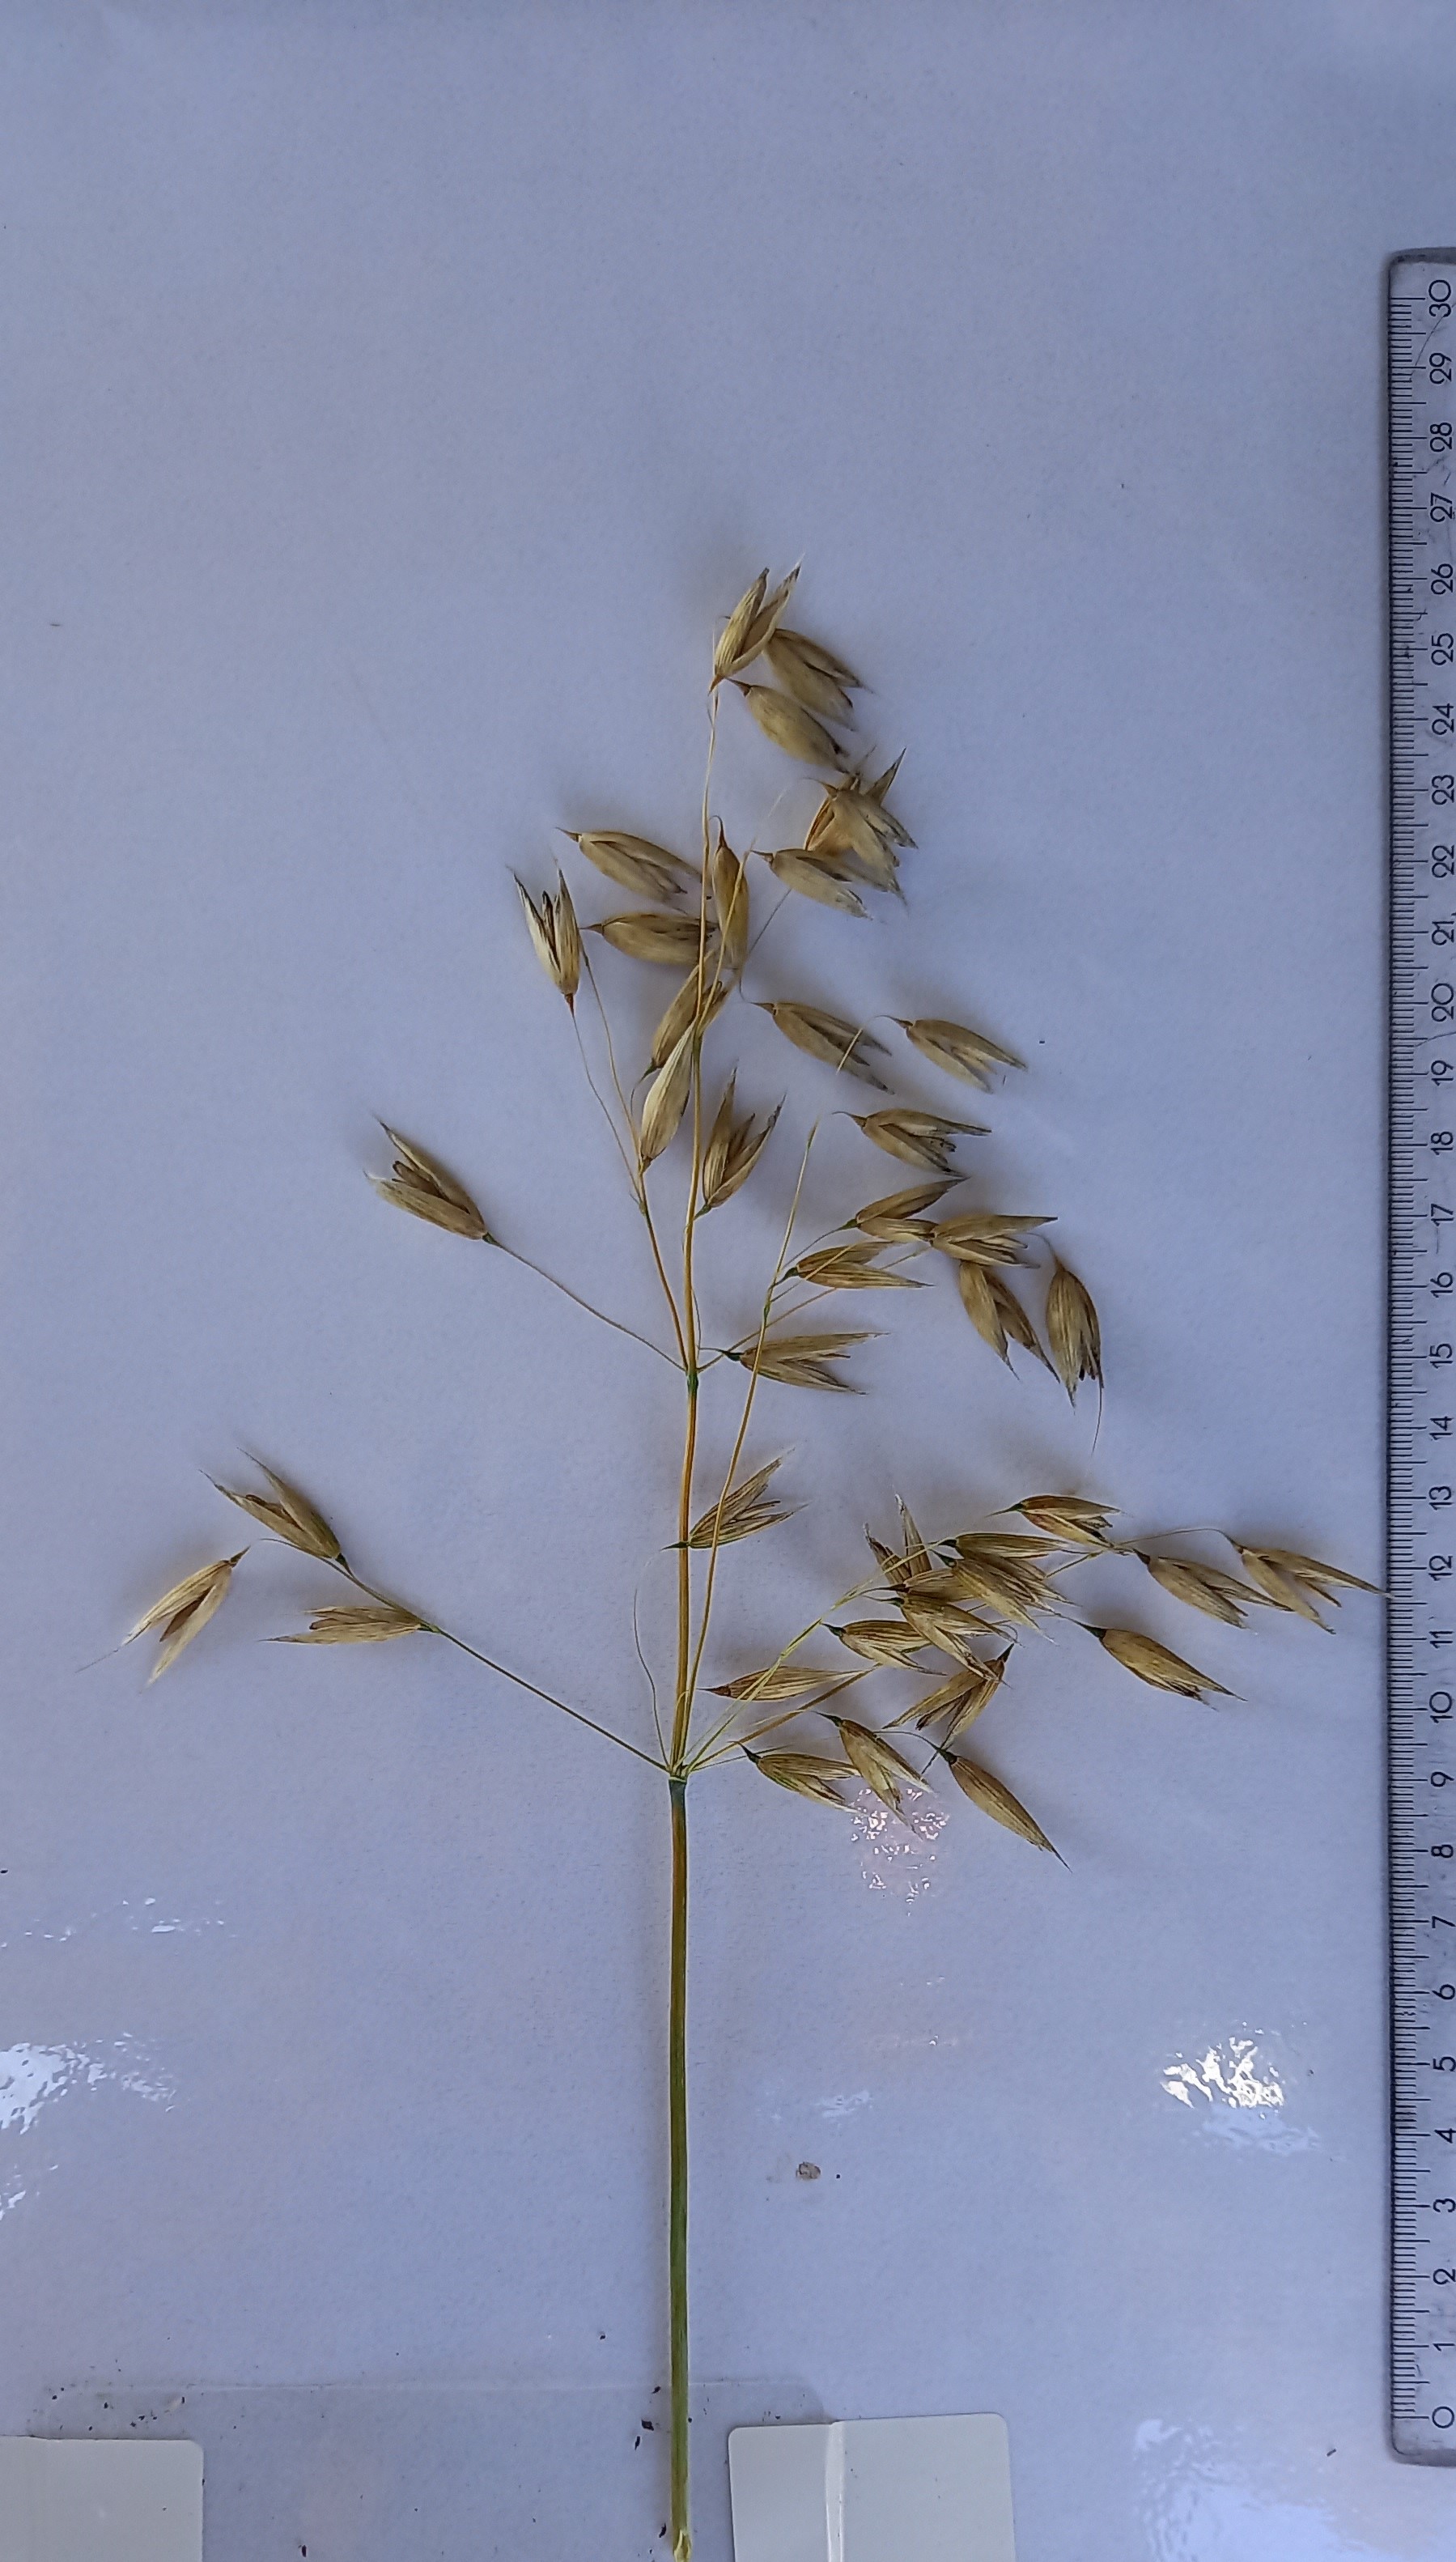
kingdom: Plantae
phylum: Tracheophyta
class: Liliopsida
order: Poales
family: Poaceae
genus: Avena
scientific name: Avena sativa
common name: Oat
